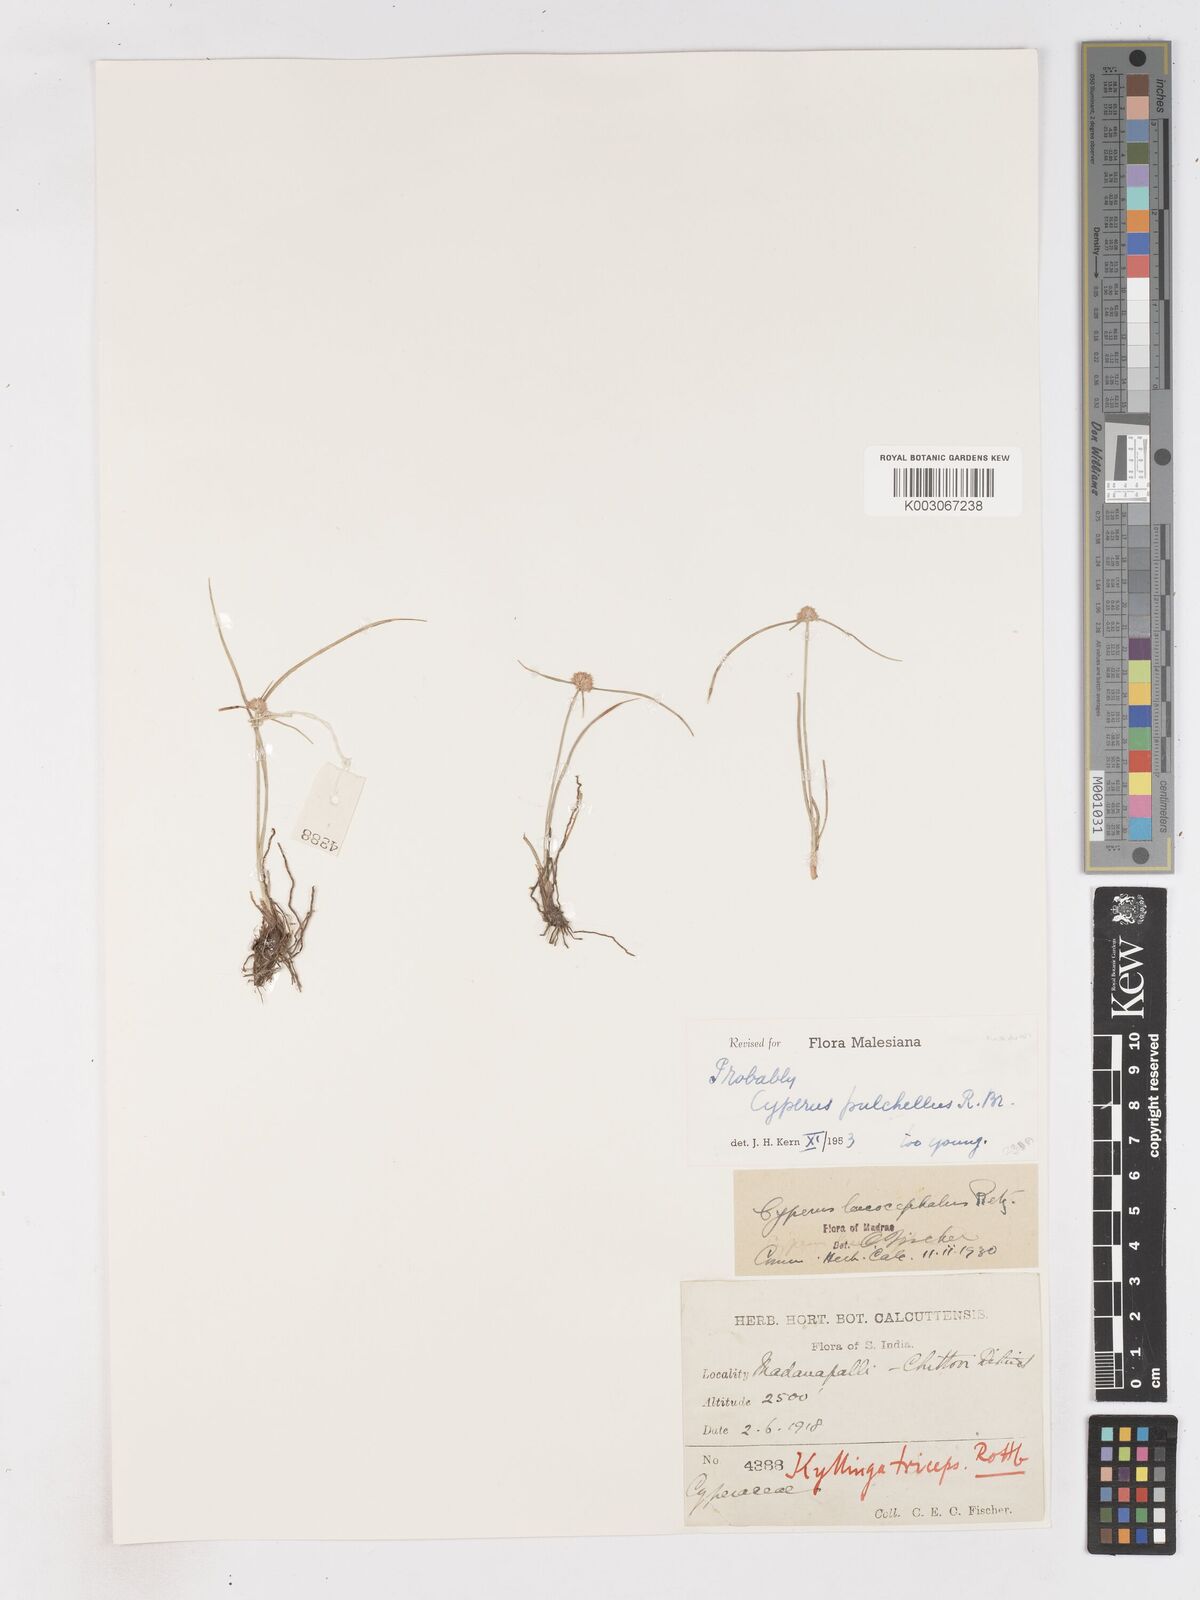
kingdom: Plantae
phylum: Tracheophyta
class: Liliopsida
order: Poales
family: Cyperaceae
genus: Cyperus
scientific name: Cyperus pulchellus
